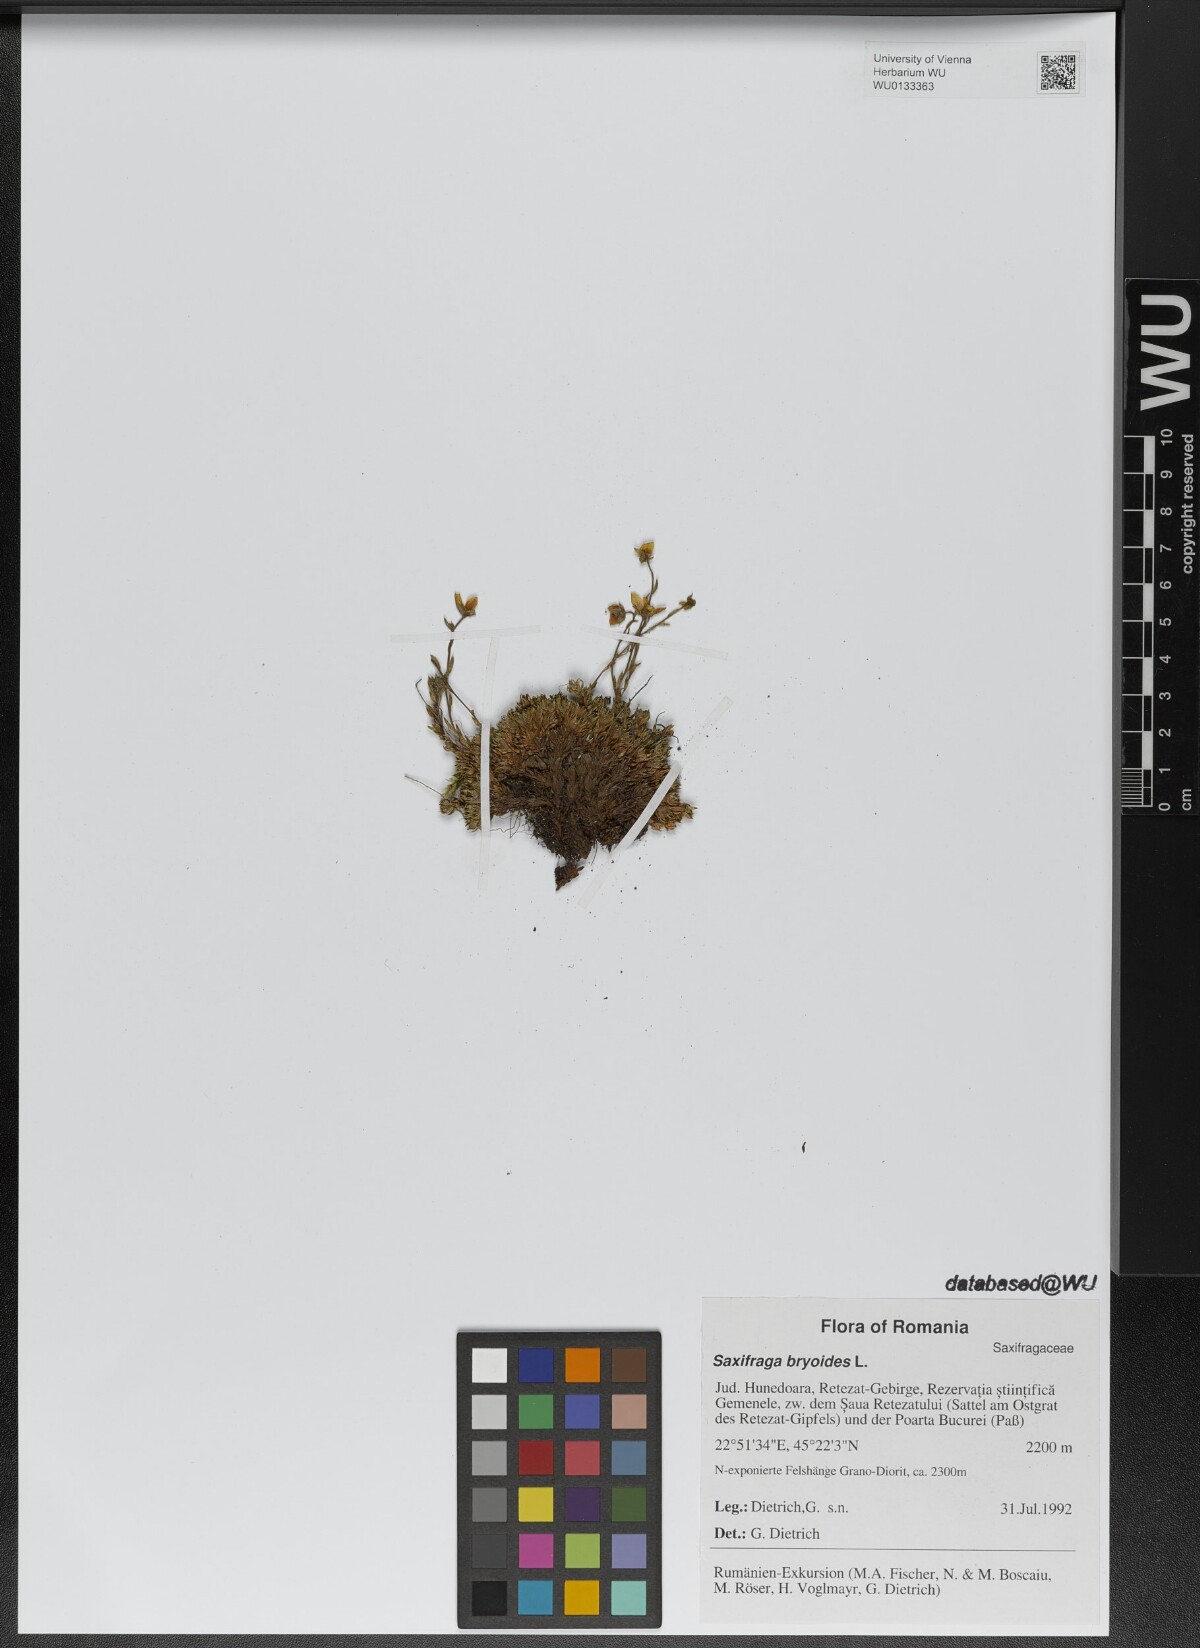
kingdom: Plantae
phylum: Tracheophyta
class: Magnoliopsida
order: Saxifragales
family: Saxifragaceae
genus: Saxifraga
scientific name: Saxifraga bryoides
